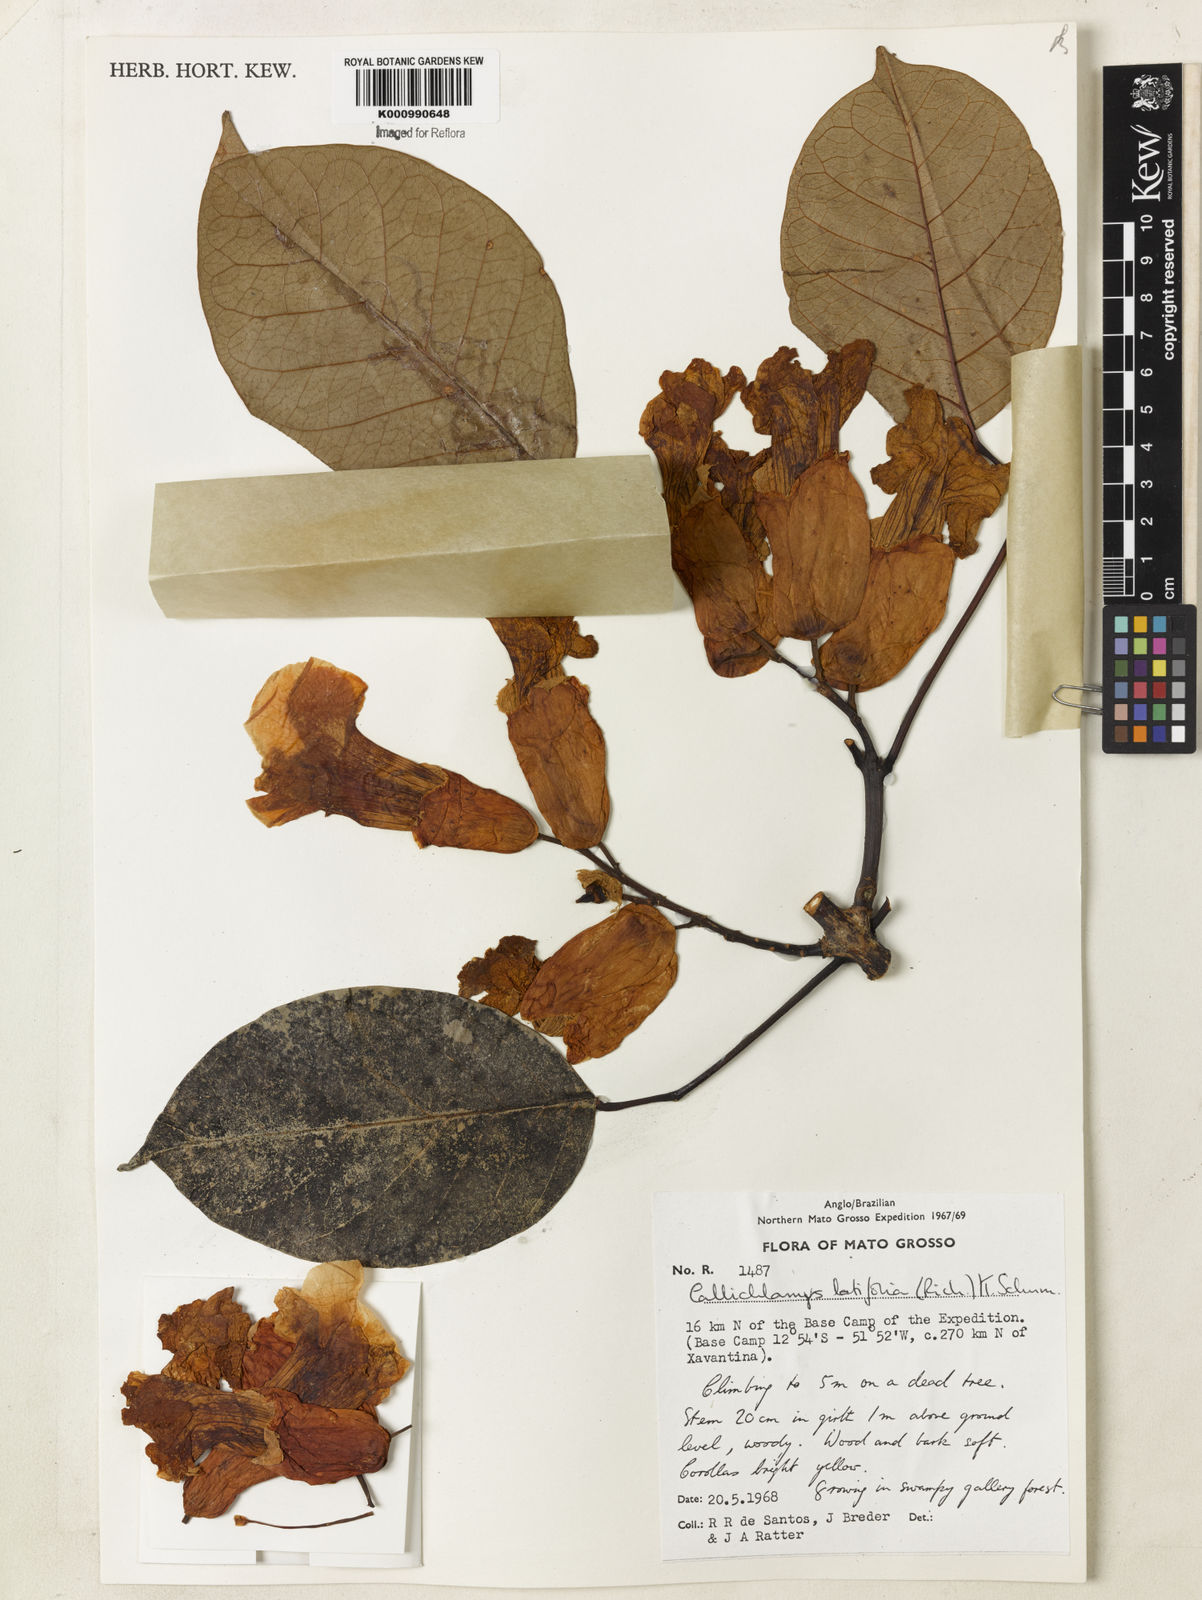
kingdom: Plantae
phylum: Tracheophyta
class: Magnoliopsida
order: Lamiales
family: Bignoniaceae
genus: Callichlamys
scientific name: Callichlamys latifolia
